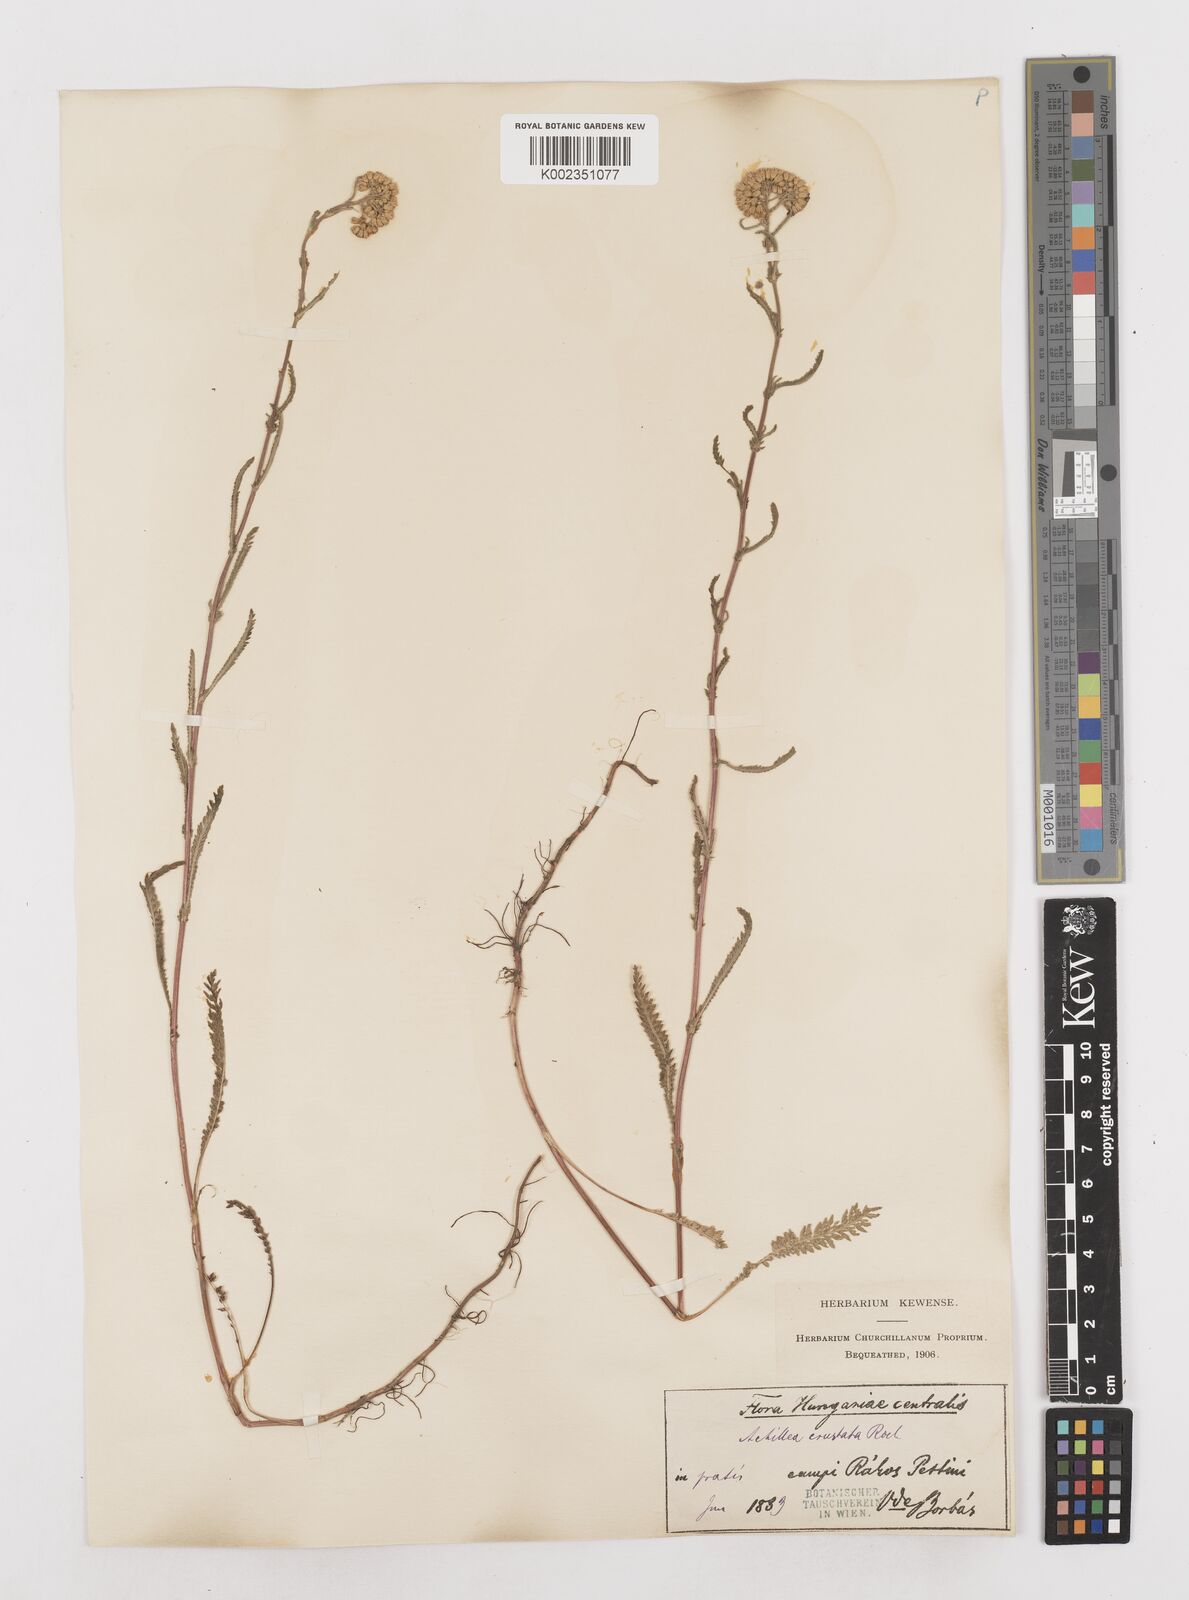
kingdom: Plantae
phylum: Tracheophyta
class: Magnoliopsida
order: Asterales
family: Asteraceae
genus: Achillea
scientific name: Achillea millefolium
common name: Yarrow
